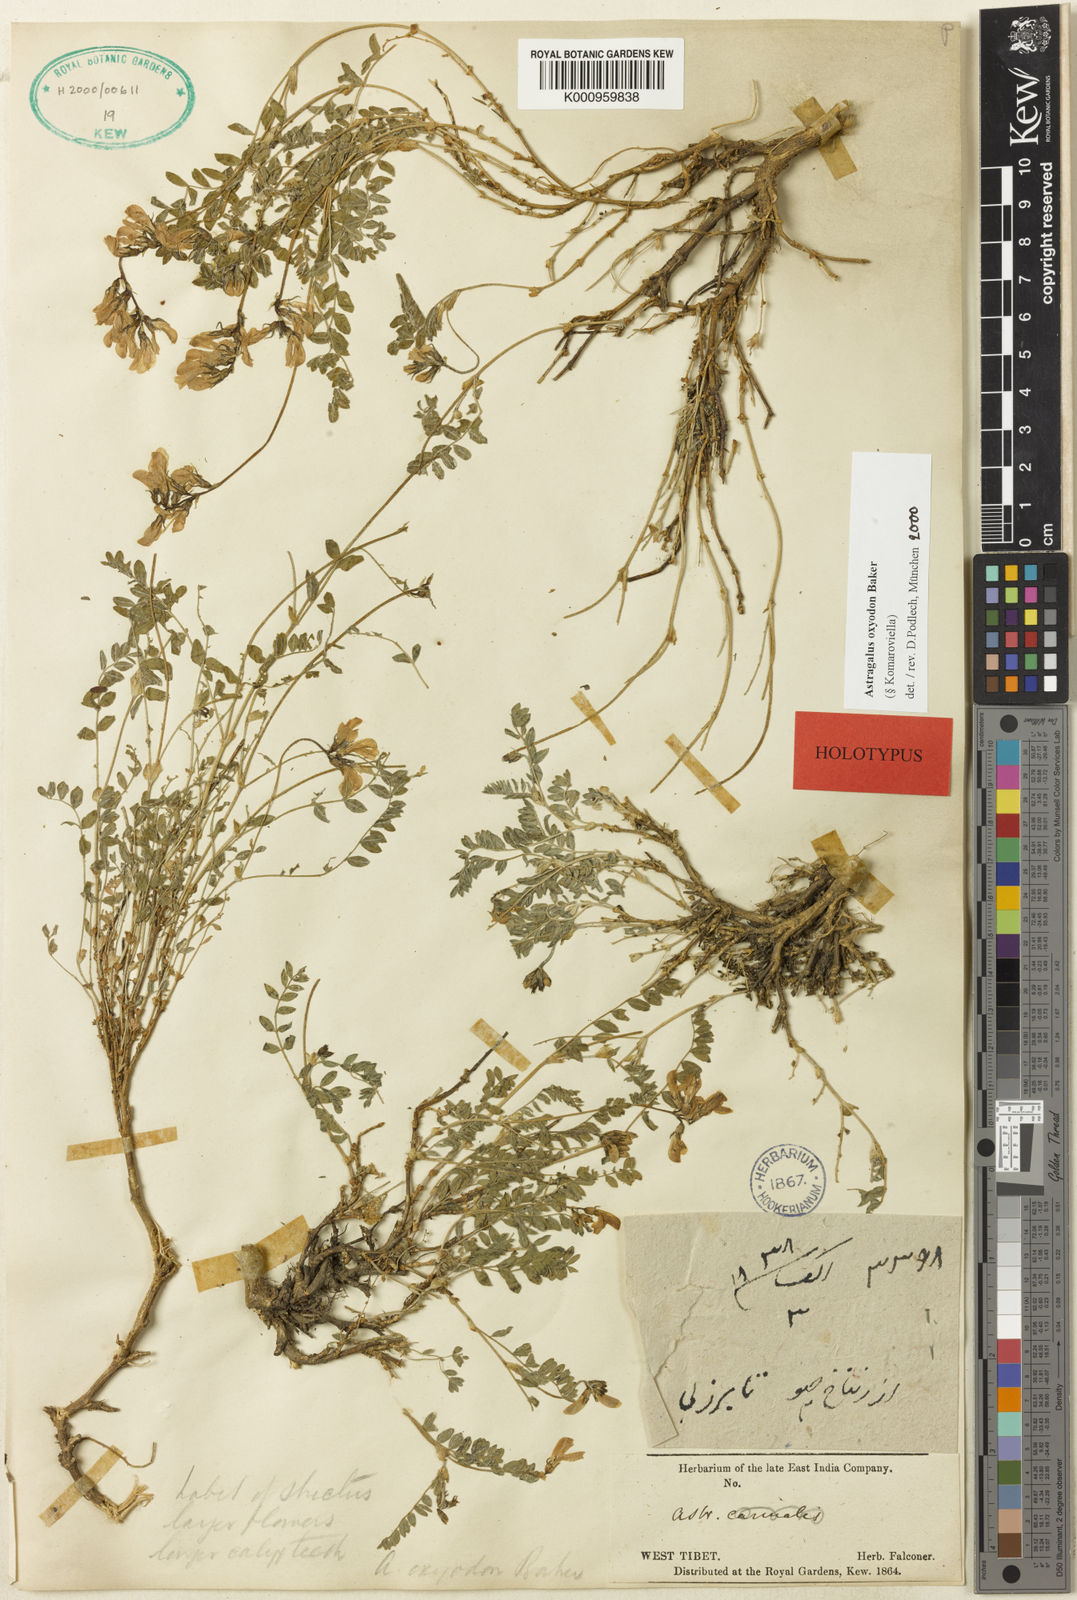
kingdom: Plantae
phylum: Tracheophyta
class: Magnoliopsida
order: Fabales
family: Fabaceae
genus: Astragalus
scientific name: Astragalus
